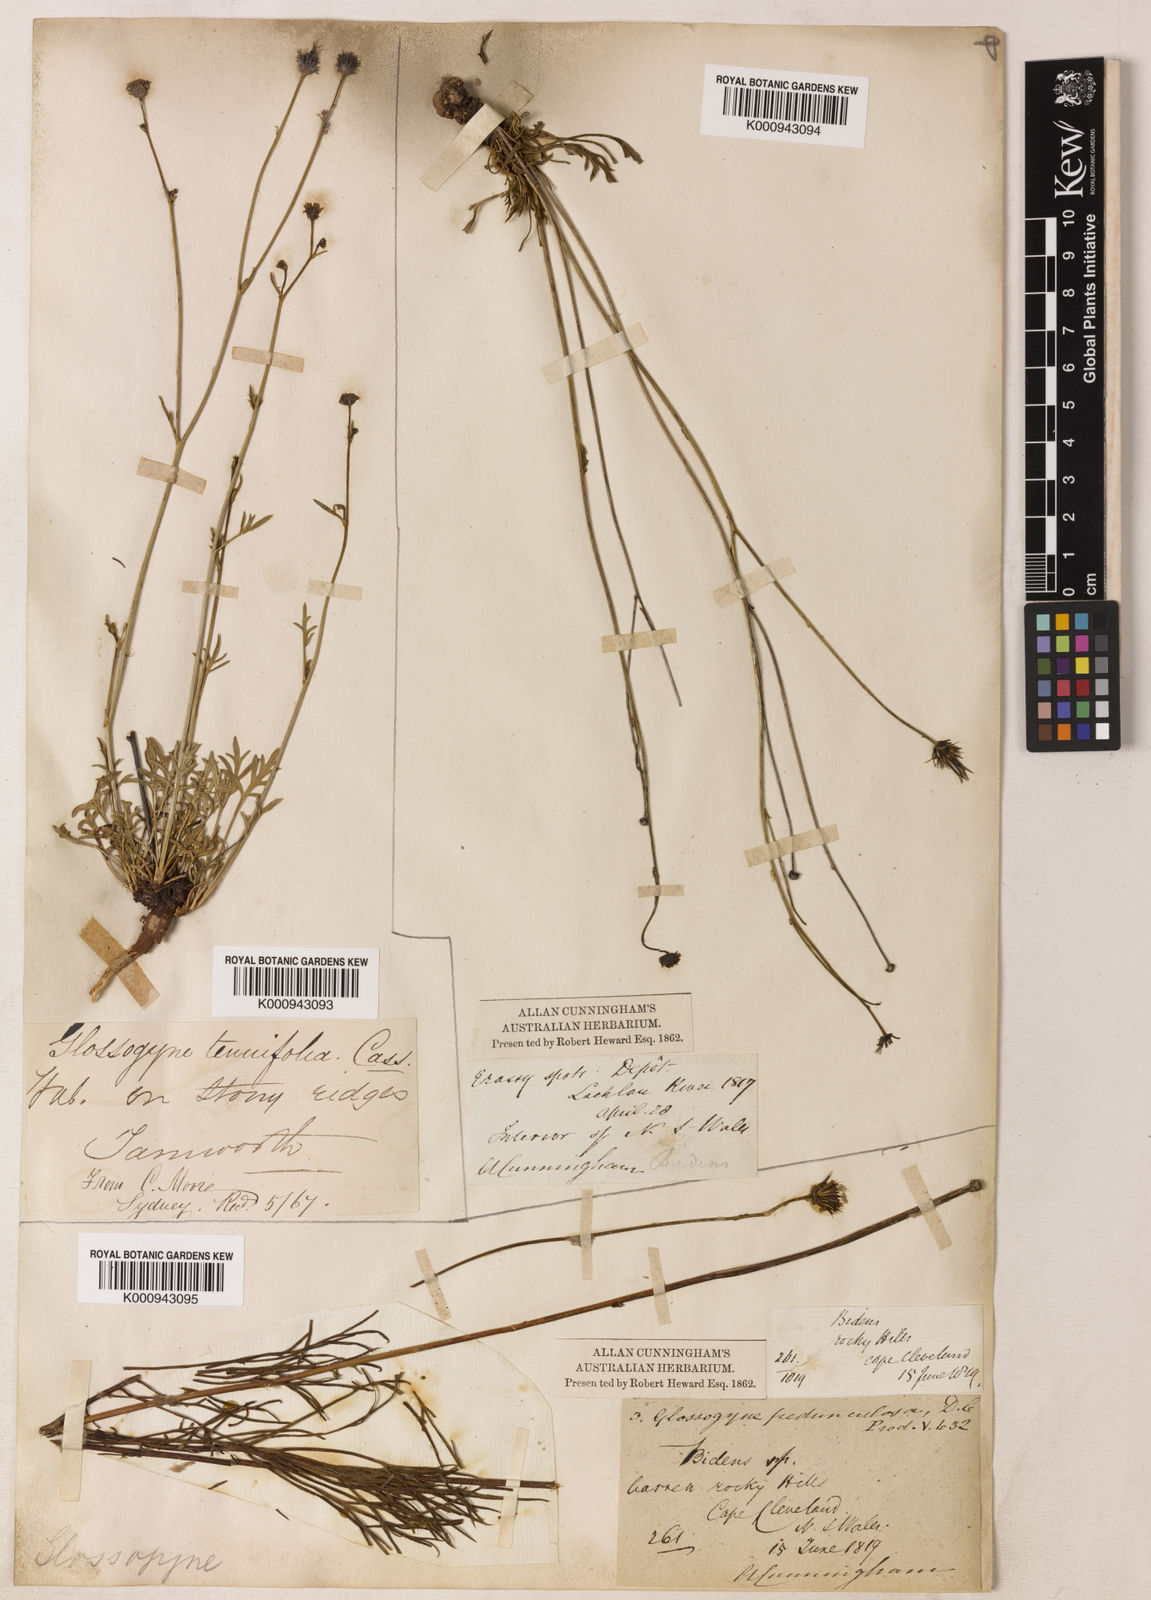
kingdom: Plantae
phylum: Tracheophyta
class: Magnoliopsida
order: Asterales
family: Asteraceae
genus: Glossocardia
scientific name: Glossocardia bidens
